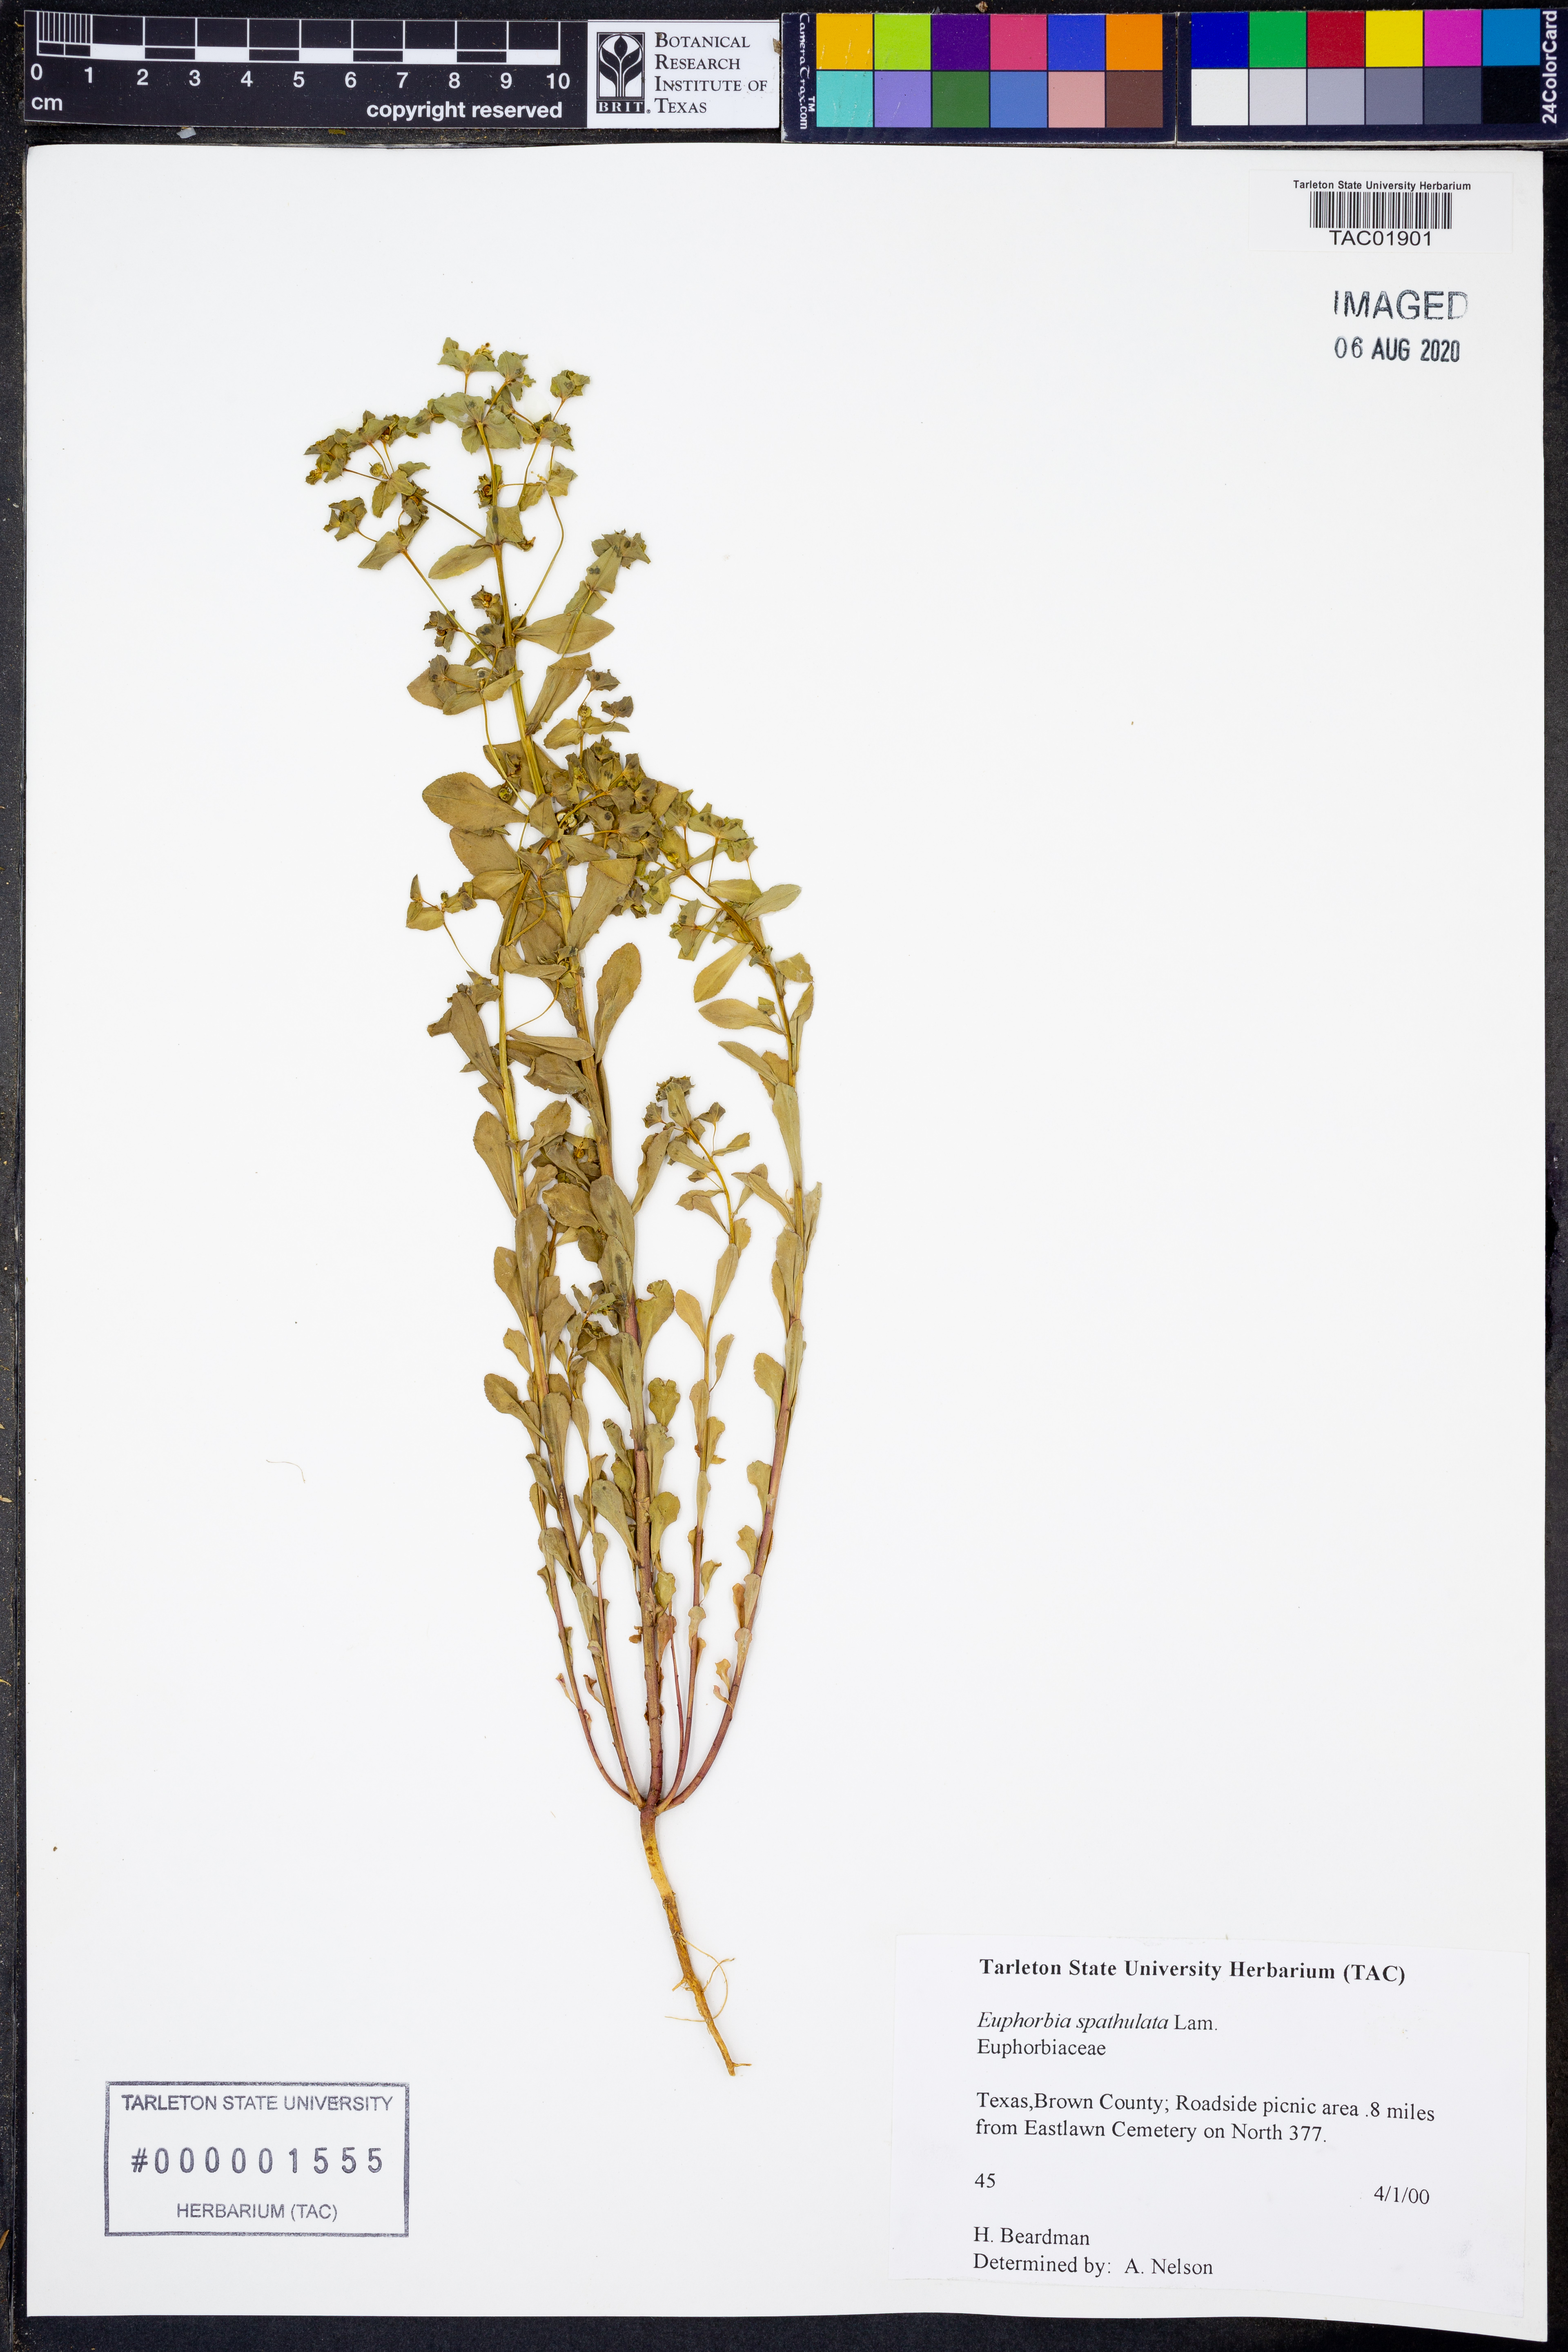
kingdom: Plantae
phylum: Tracheophyta
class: Magnoliopsida
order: Malpighiales
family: Euphorbiaceae
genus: Euphorbia
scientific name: Euphorbia spathulata
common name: Blunt spurge
